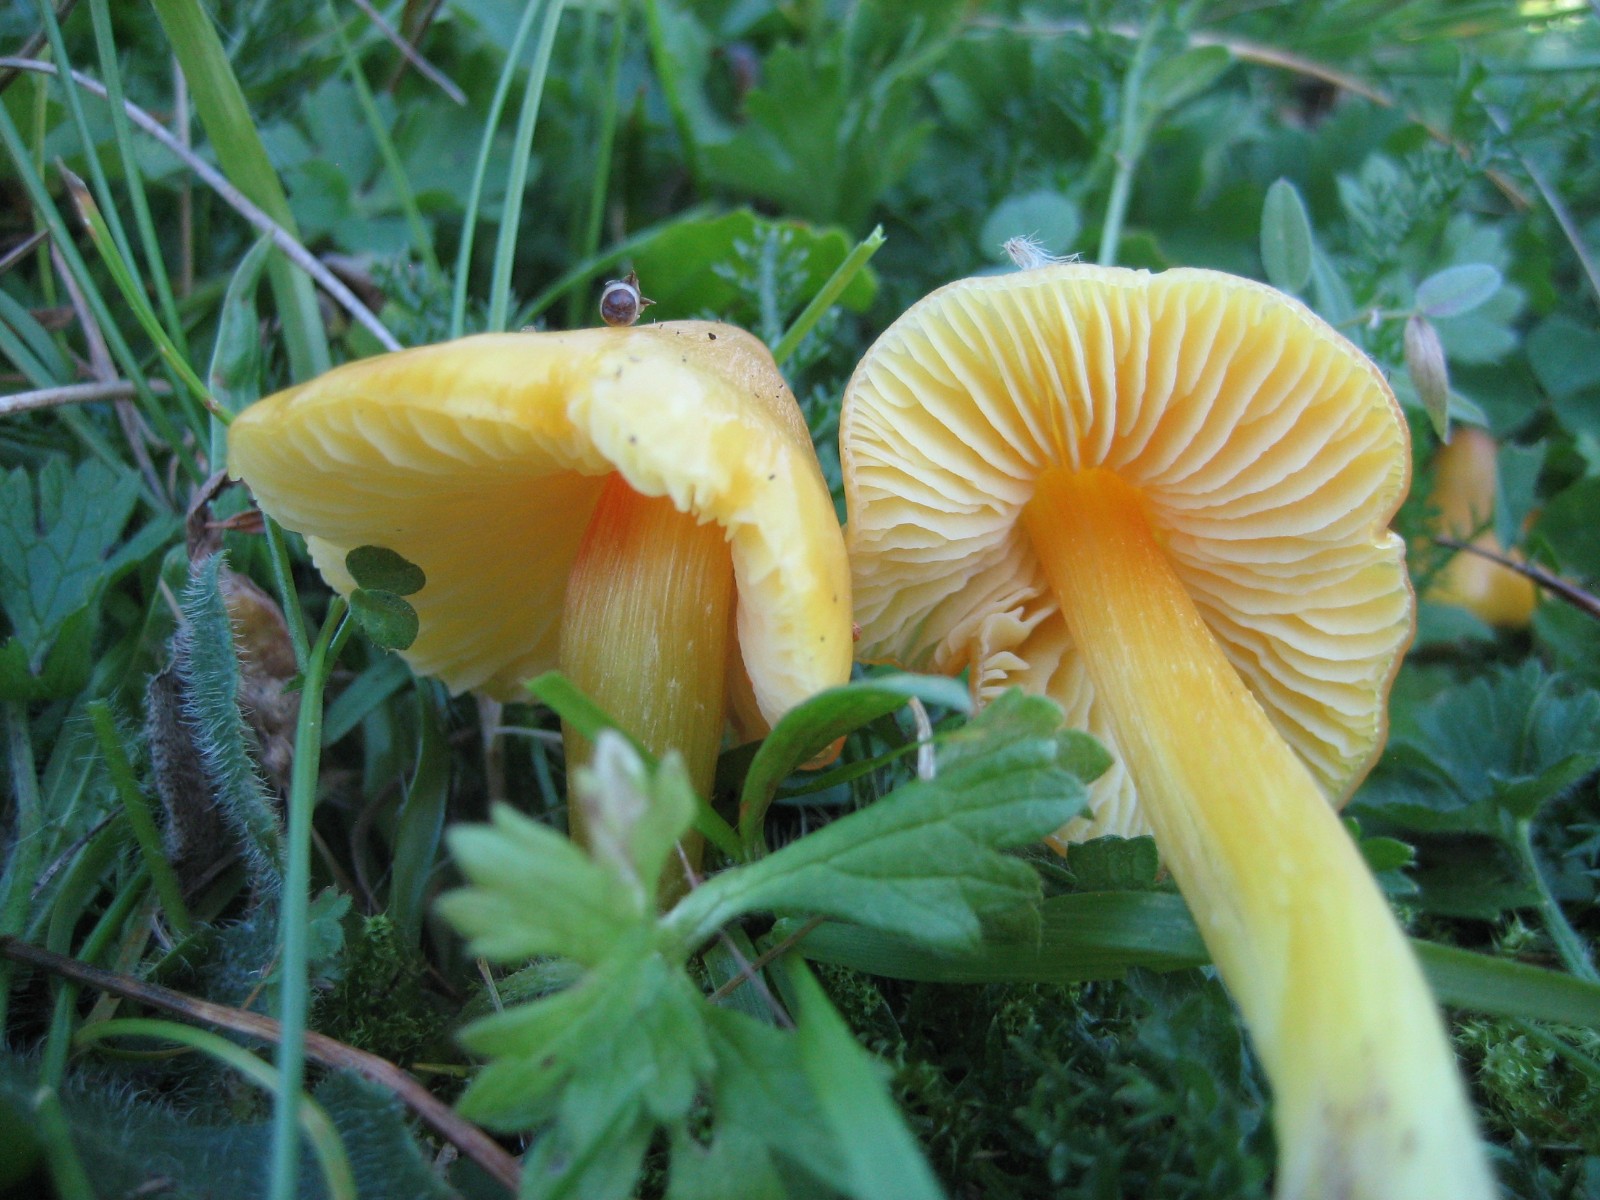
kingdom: Fungi
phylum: Basidiomycota
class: Agaricomycetes
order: Agaricales
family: Hygrophoraceae
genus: Hygrocybe
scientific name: Hygrocybe
